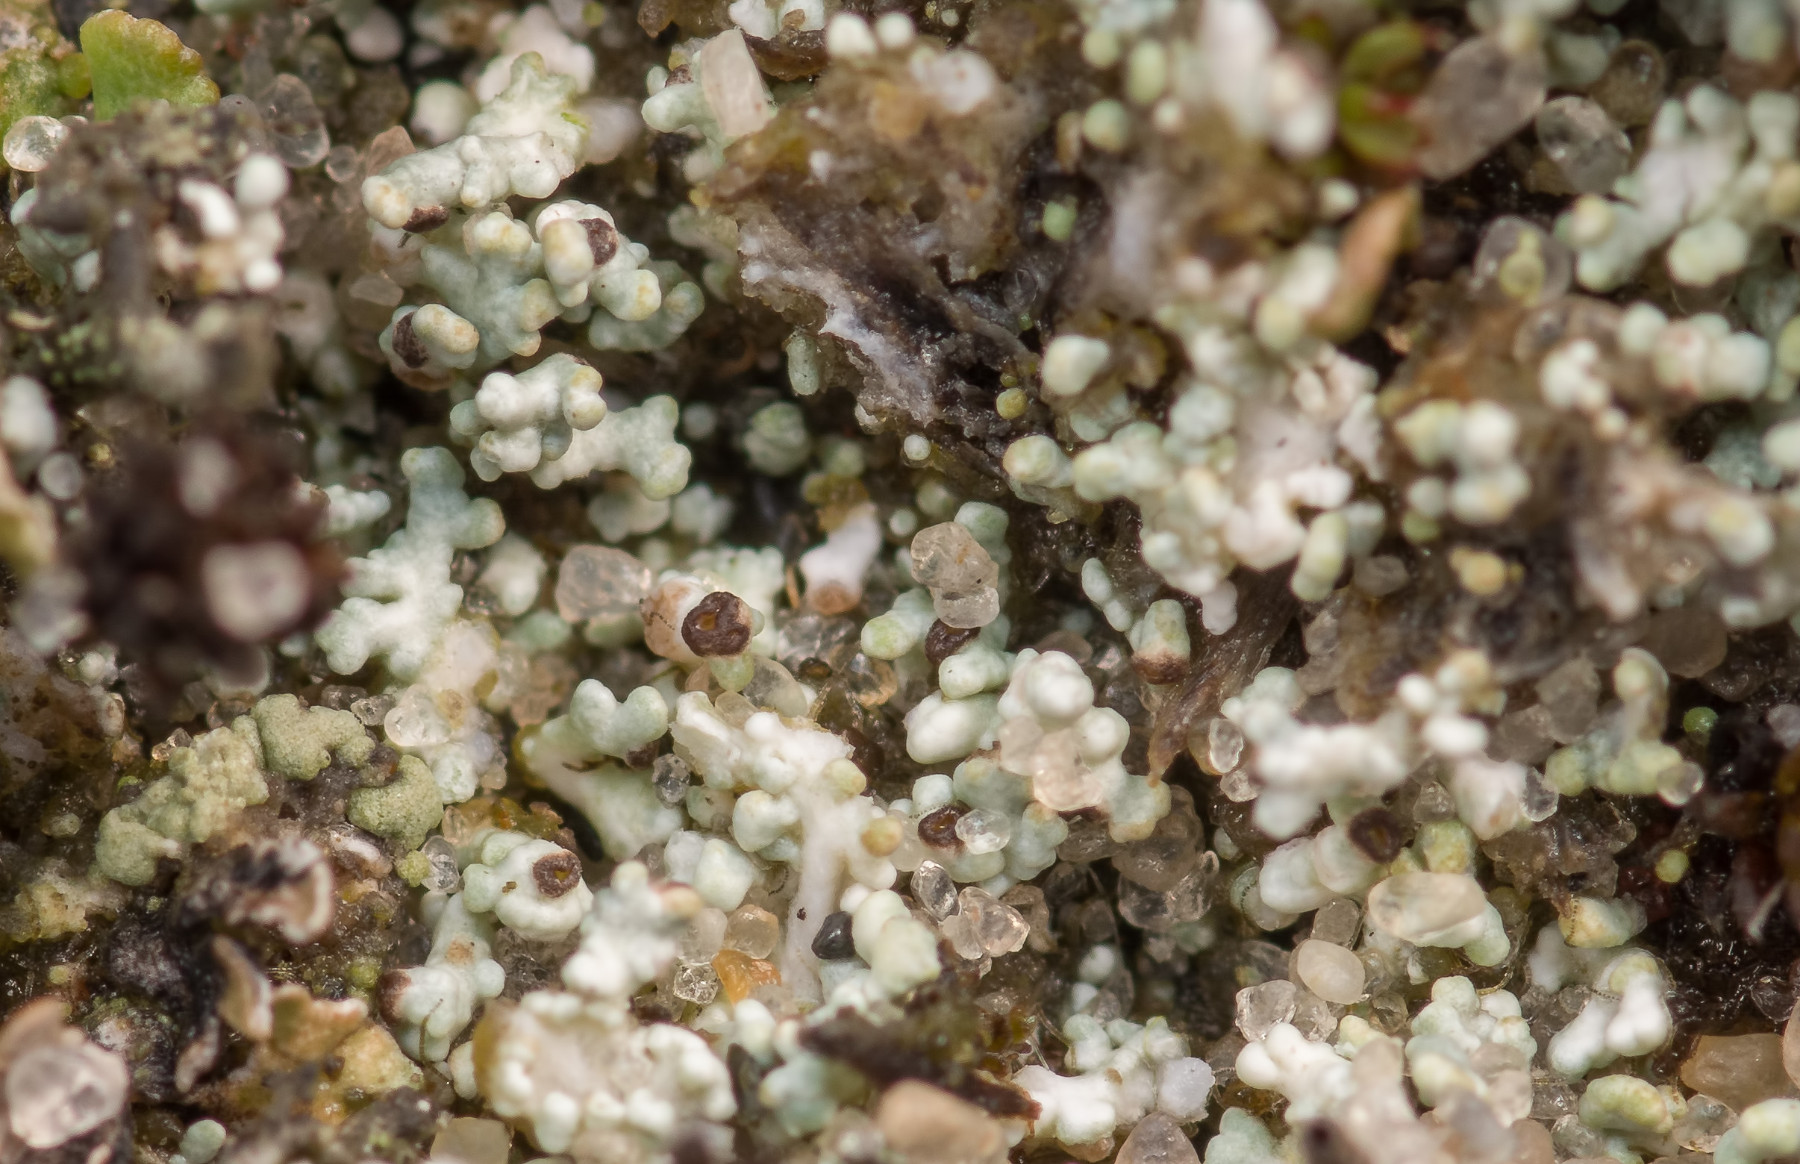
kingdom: Fungi
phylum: Ascomycota
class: Lecanoromycetes
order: Lecanorales
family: Stereocaulaceae
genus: Stereocaulon
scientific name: Stereocaulon condensatum
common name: lav korallav
